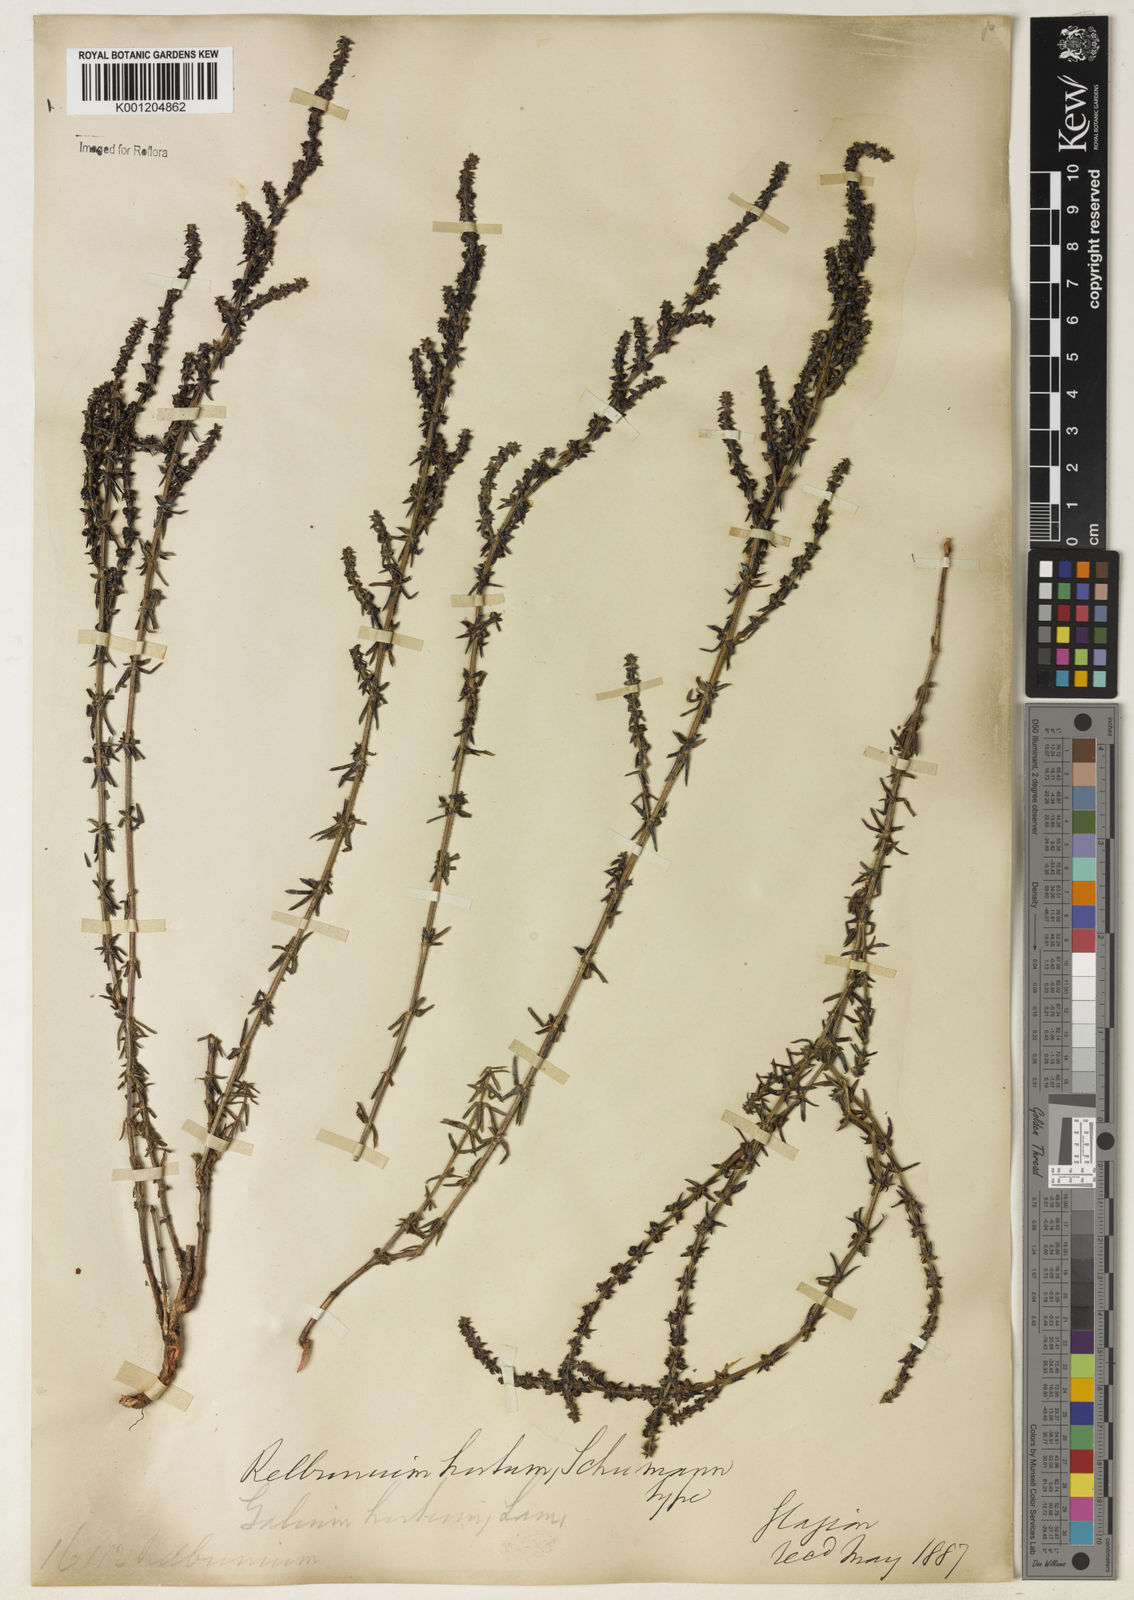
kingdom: Plantae
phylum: Tracheophyta
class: Magnoliopsida
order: Gentianales
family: Rubiaceae
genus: Galium
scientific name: Galium megapotamicum
